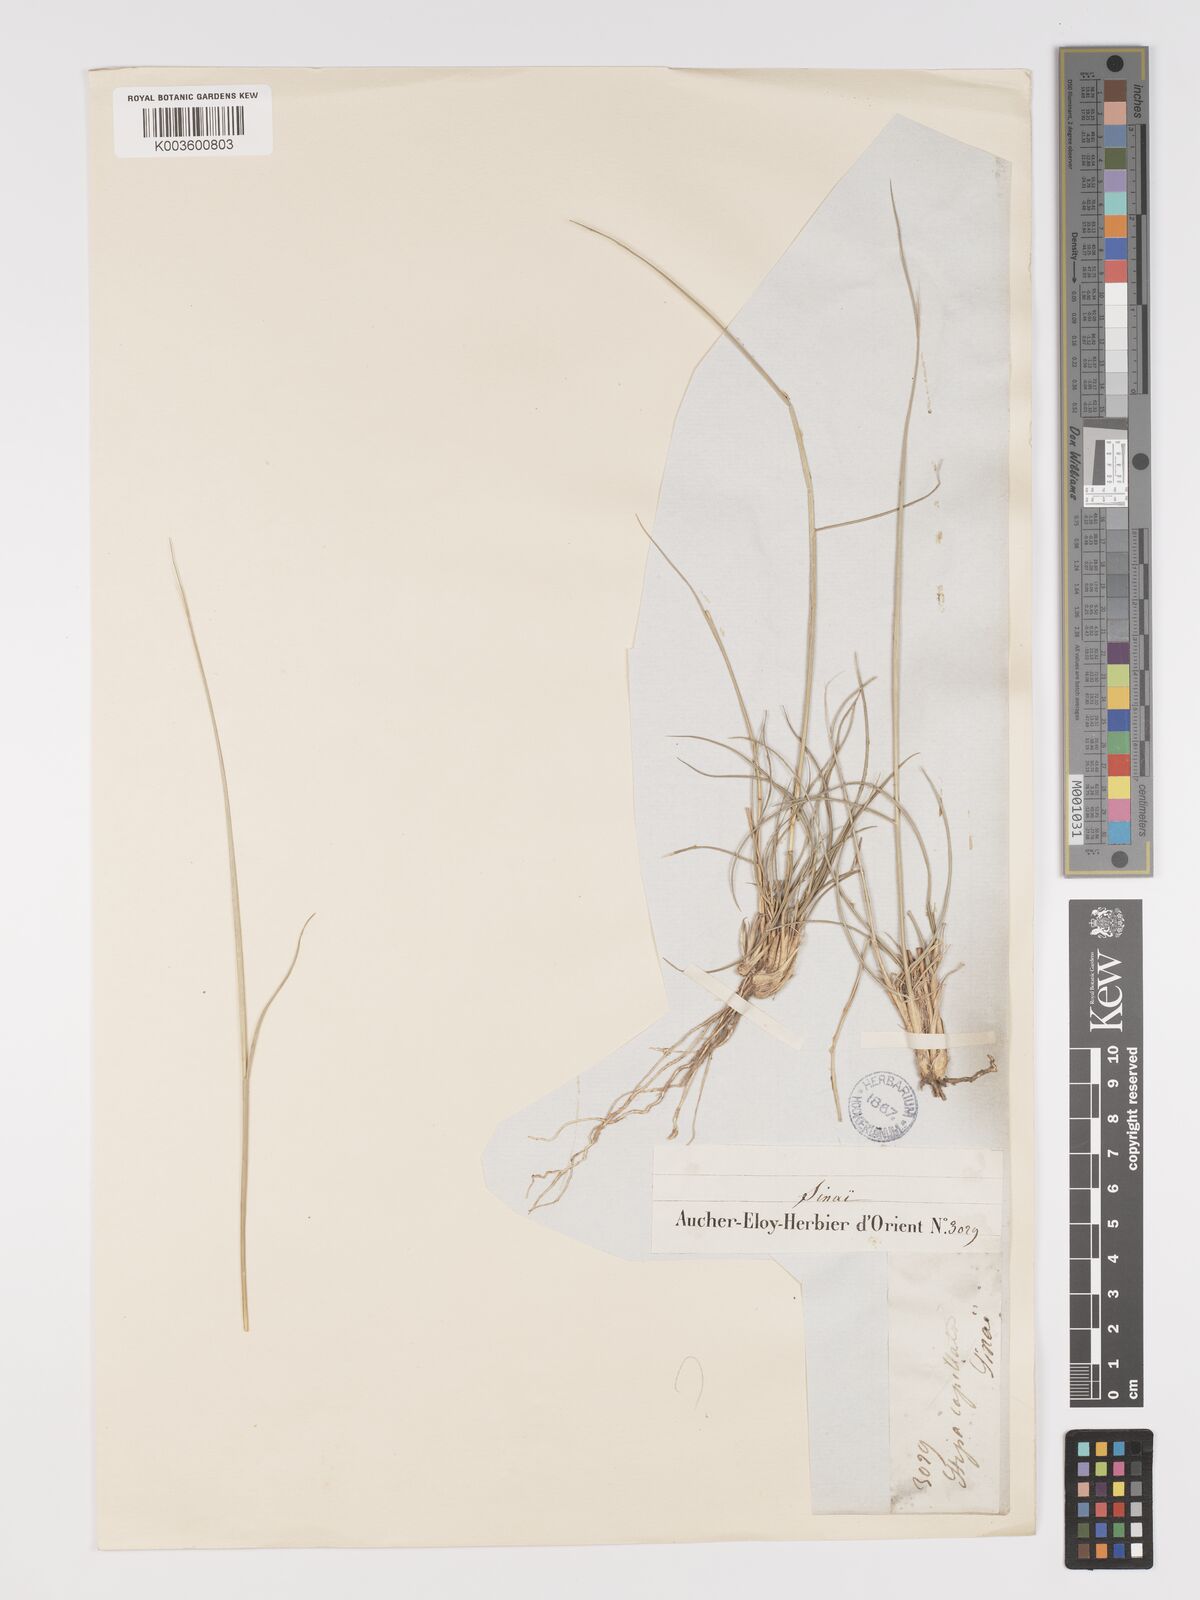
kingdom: Plantae
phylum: Tracheophyta
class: Liliopsida
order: Poales
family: Poaceae
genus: Stipa
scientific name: Stipa
